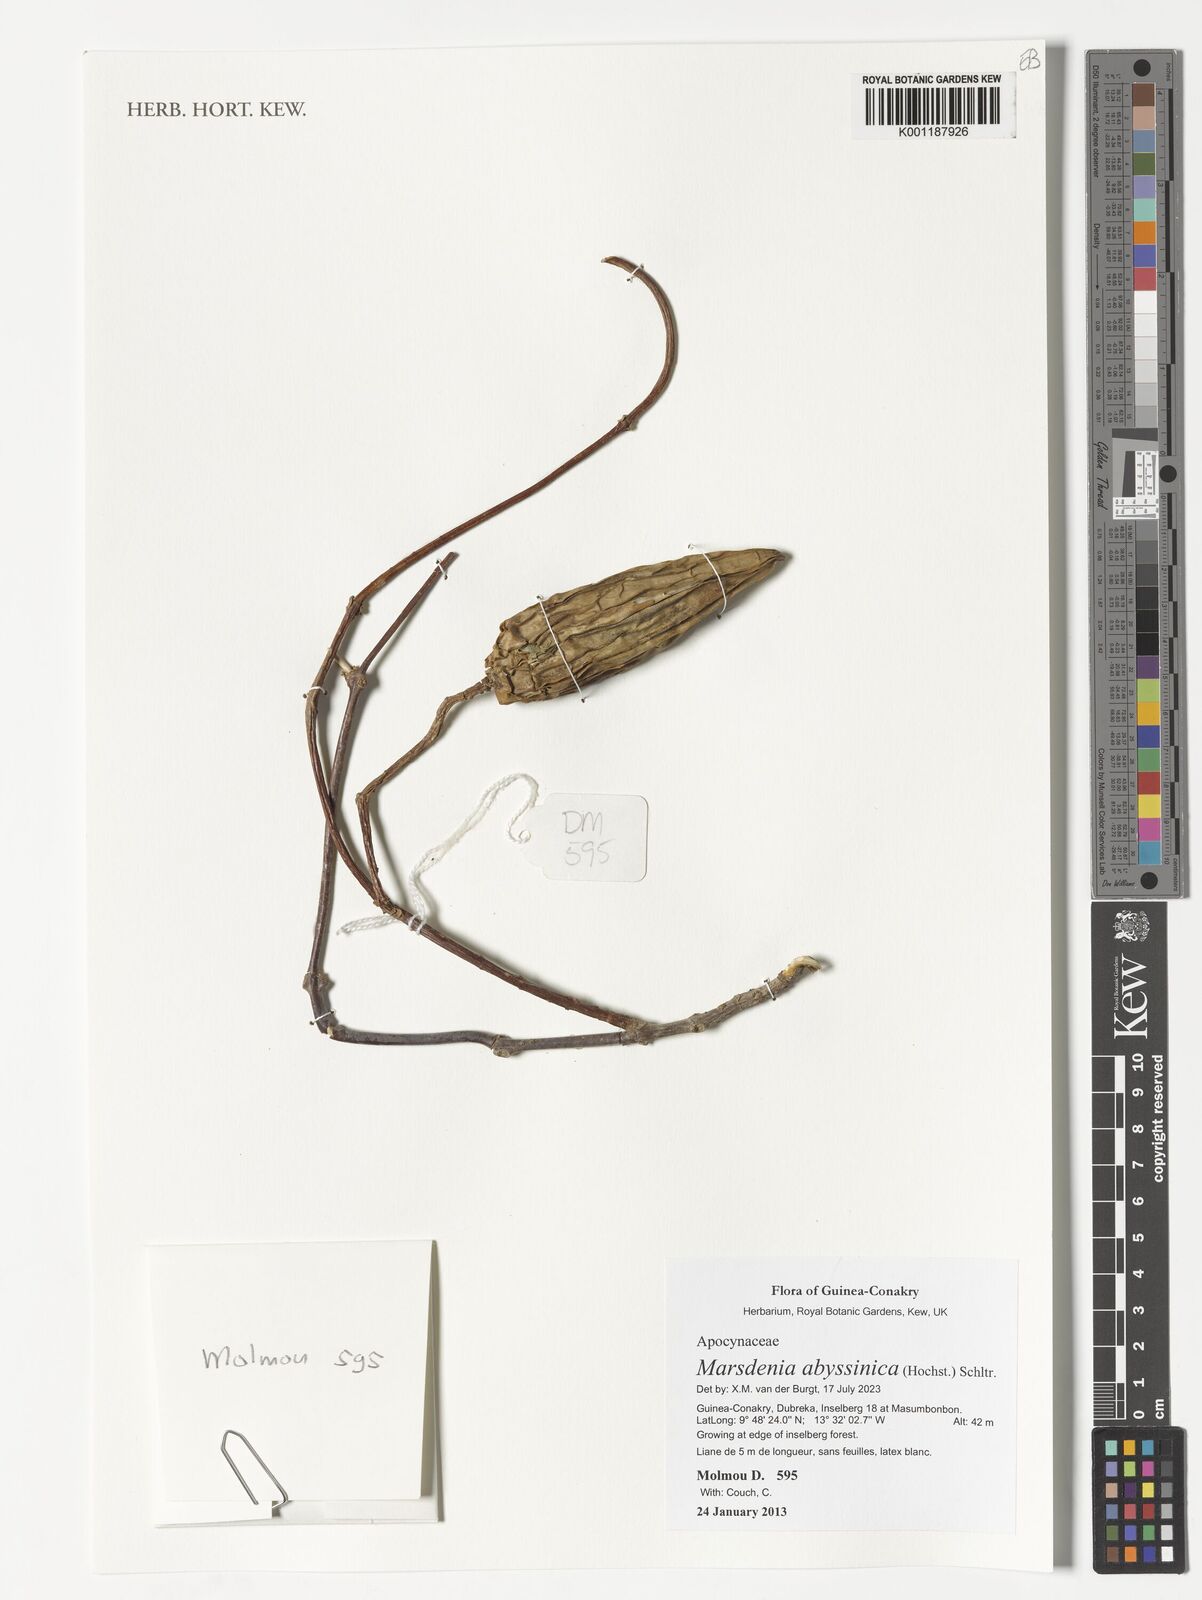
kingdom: Plantae
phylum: Tracheophyta
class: Magnoliopsida
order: Gentianales
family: Apocynaceae
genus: Stephanotis
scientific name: Stephanotis abyssinica
